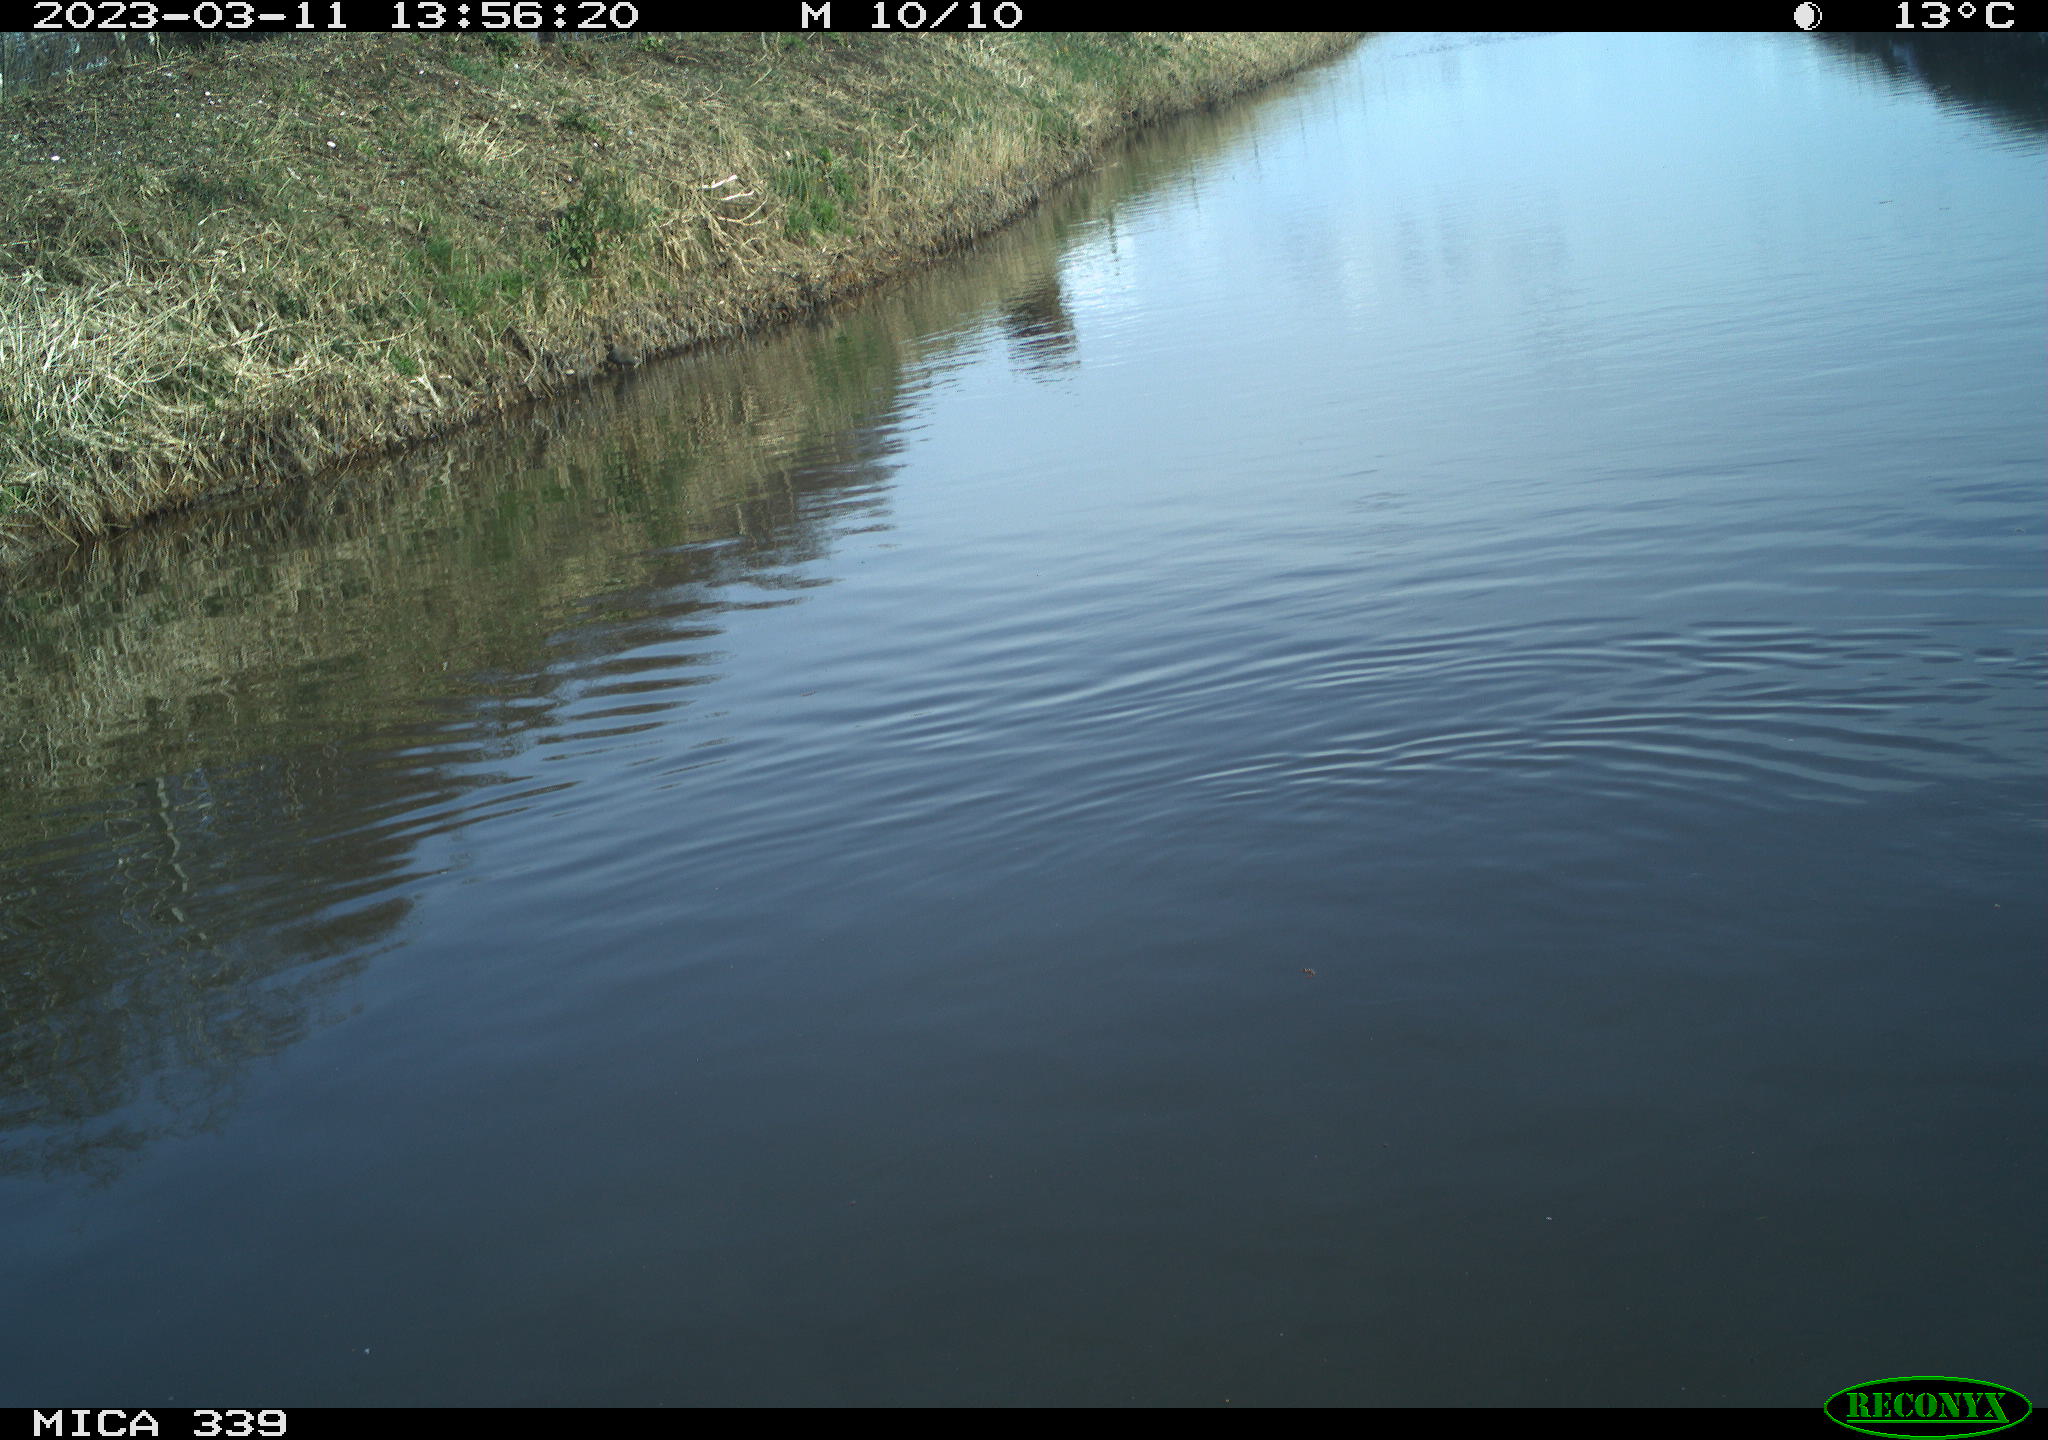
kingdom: Animalia
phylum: Chordata
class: Aves
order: Anseriformes
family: Anatidae
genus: Anas
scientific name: Anas
